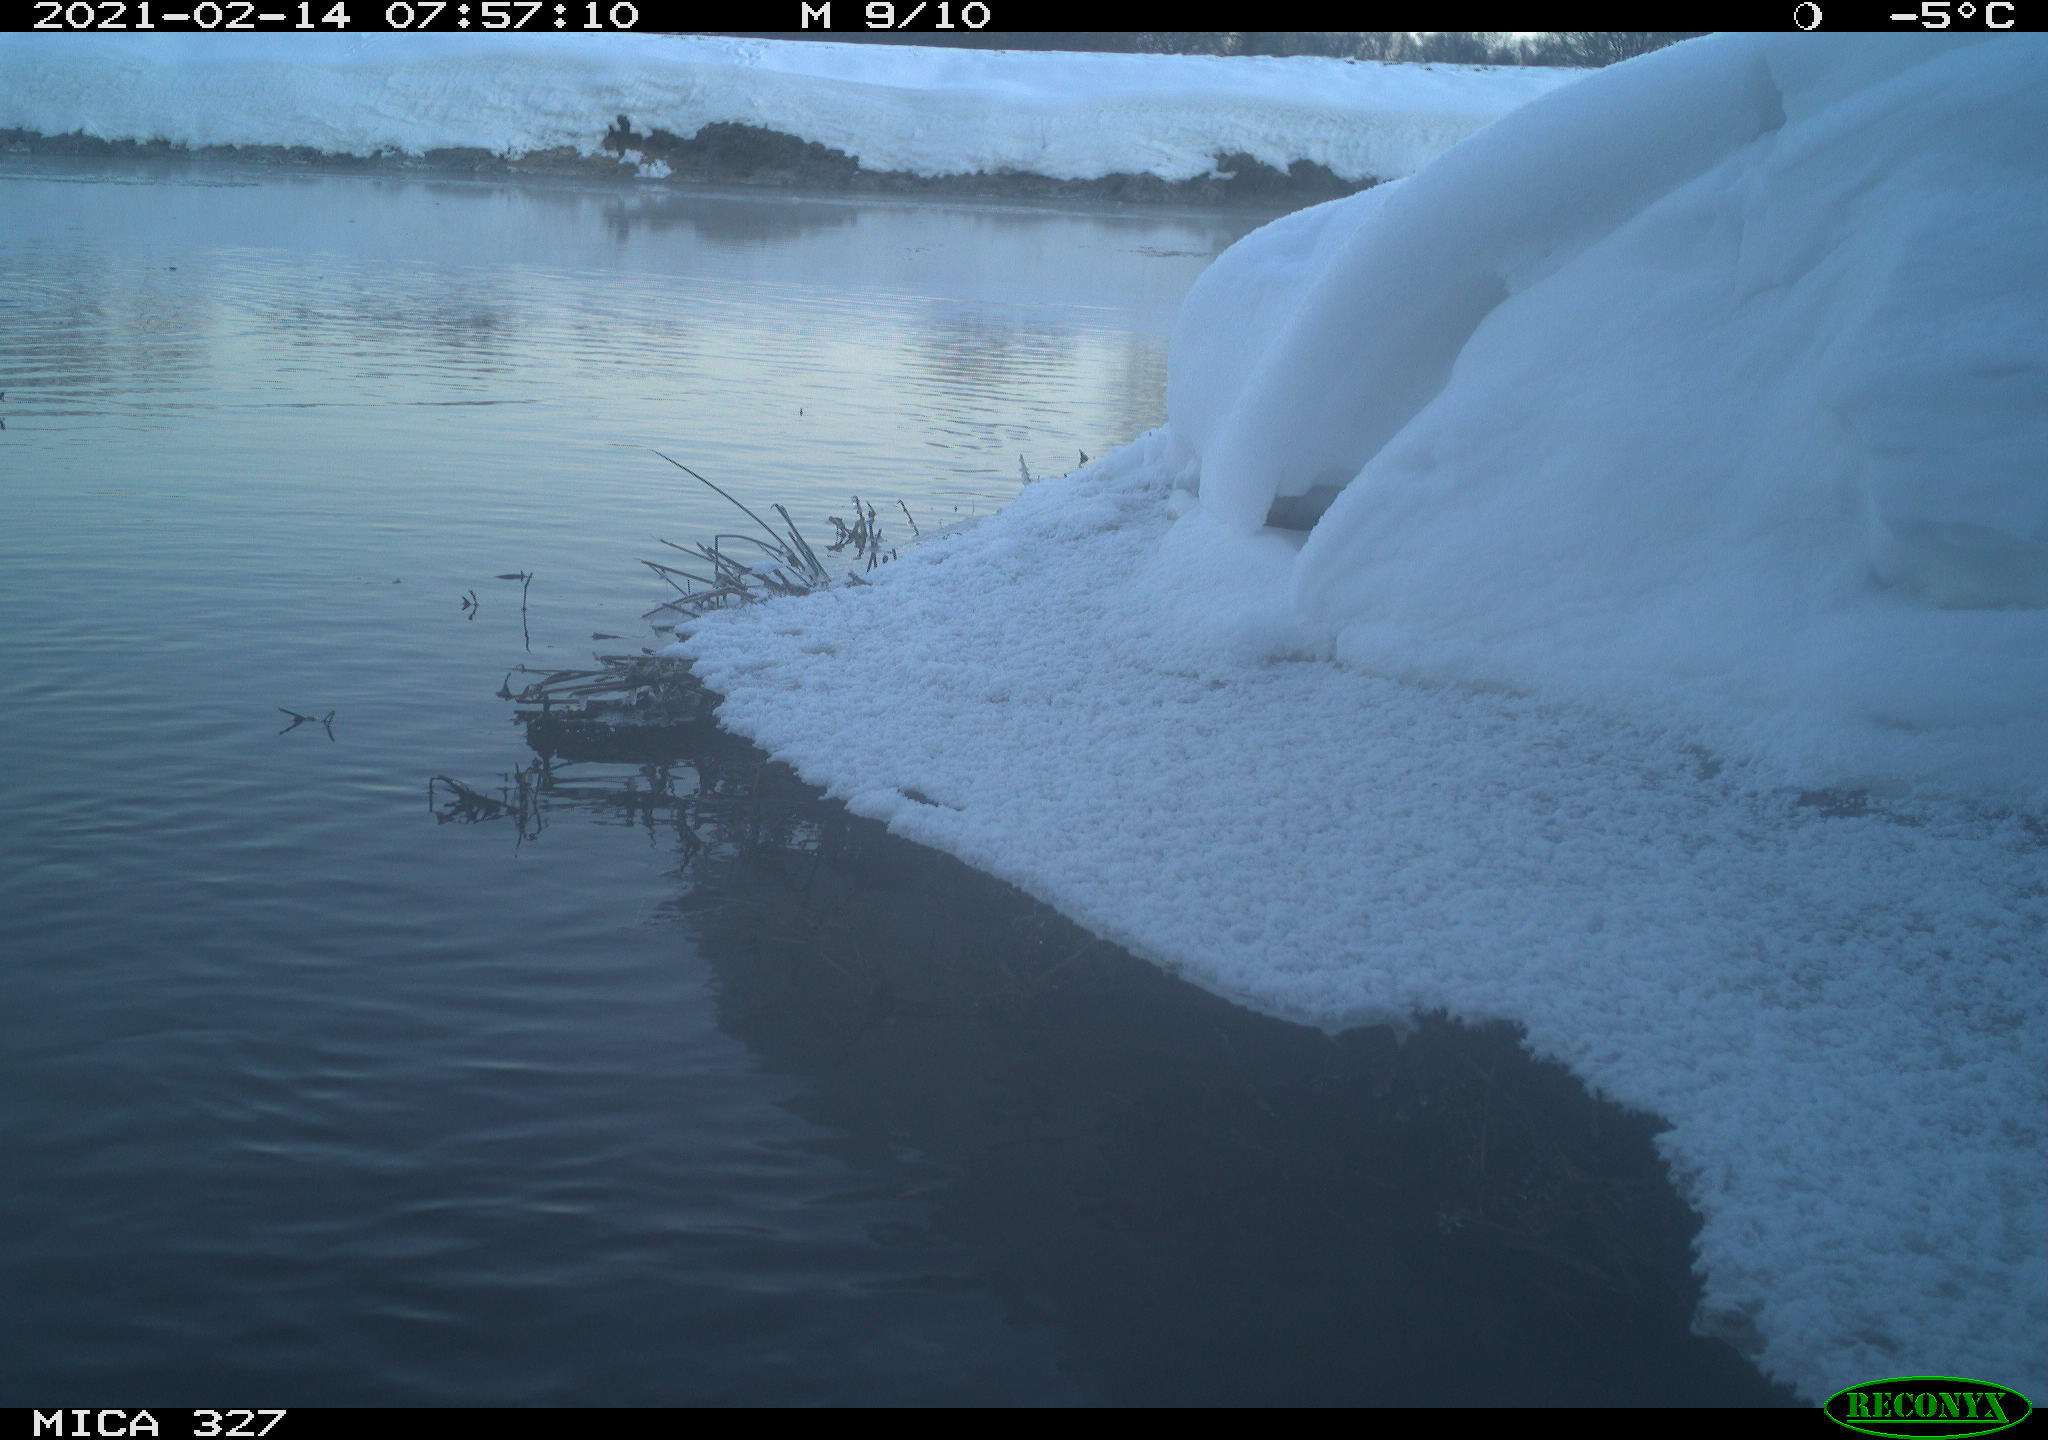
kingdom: Animalia
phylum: Chordata
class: Aves
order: Gruiformes
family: Rallidae
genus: Fulica
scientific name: Fulica atra
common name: Eurasian coot
